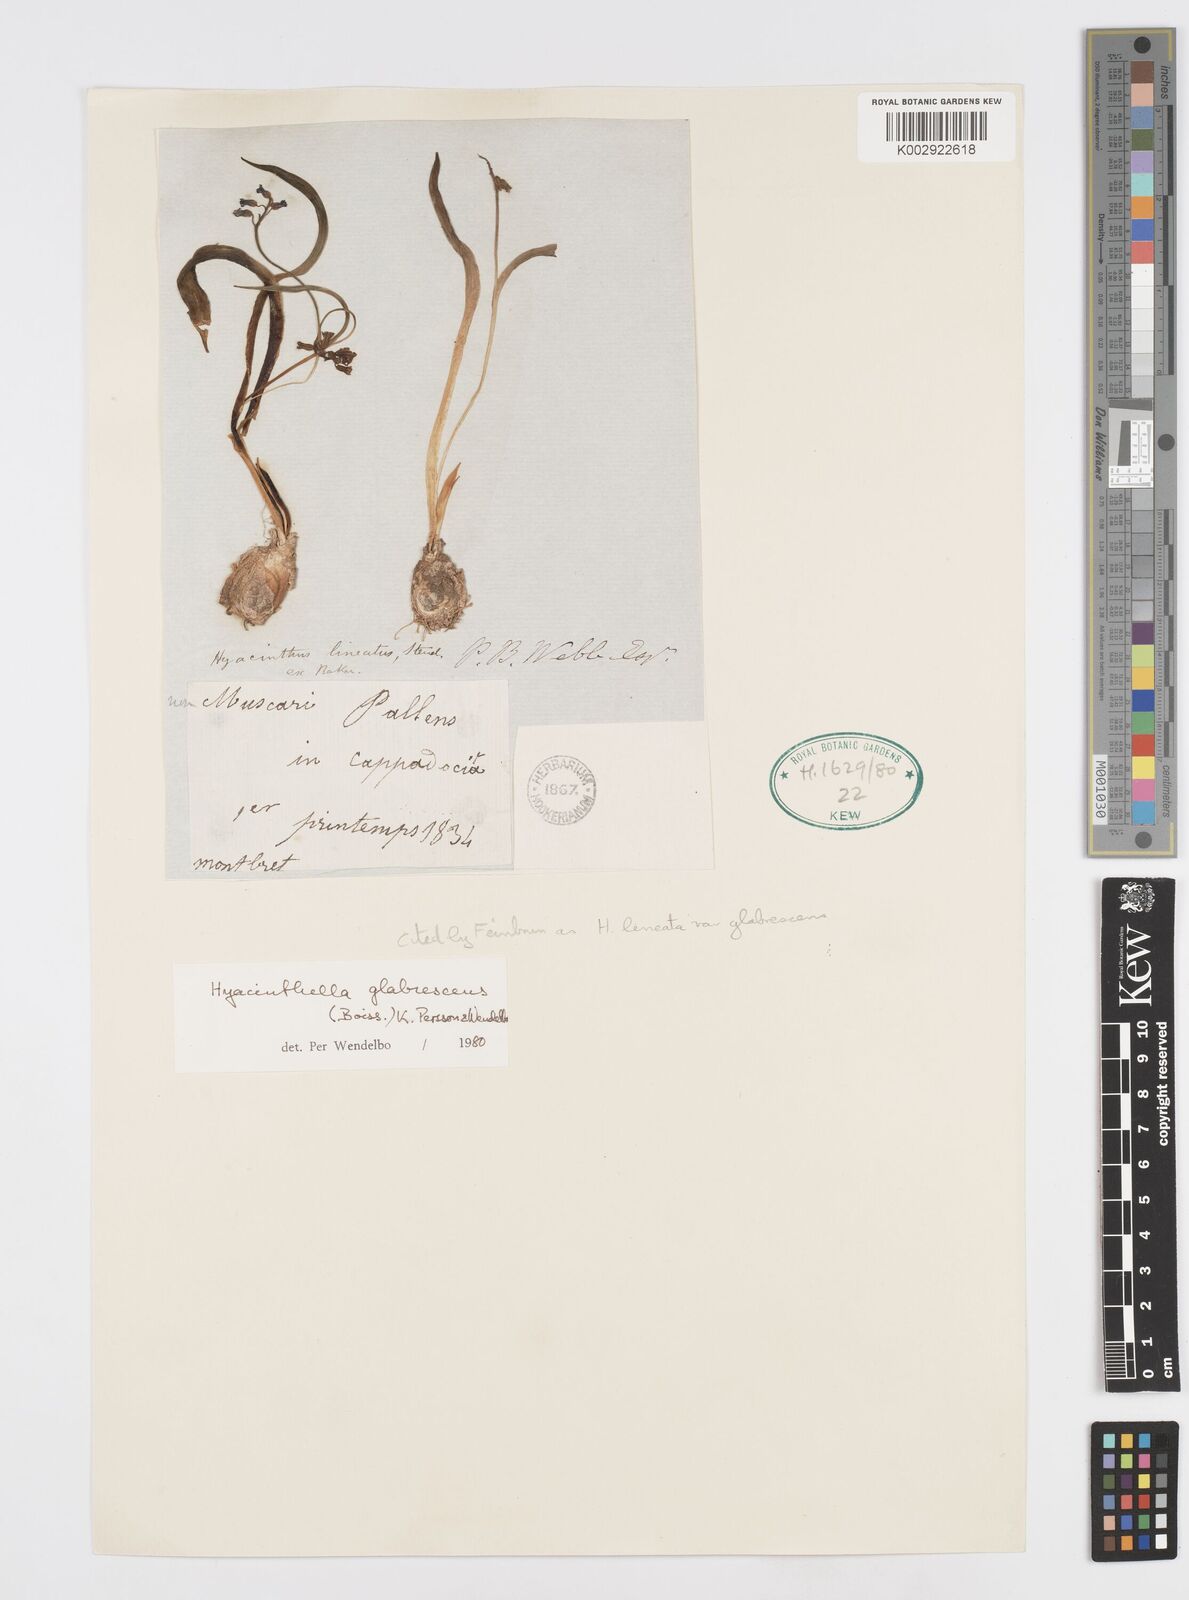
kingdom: Plantae
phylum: Tracheophyta
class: Liliopsida
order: Asparagales
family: Asparagaceae
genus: Hyacinthella
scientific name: Hyacinthella glabrescens
